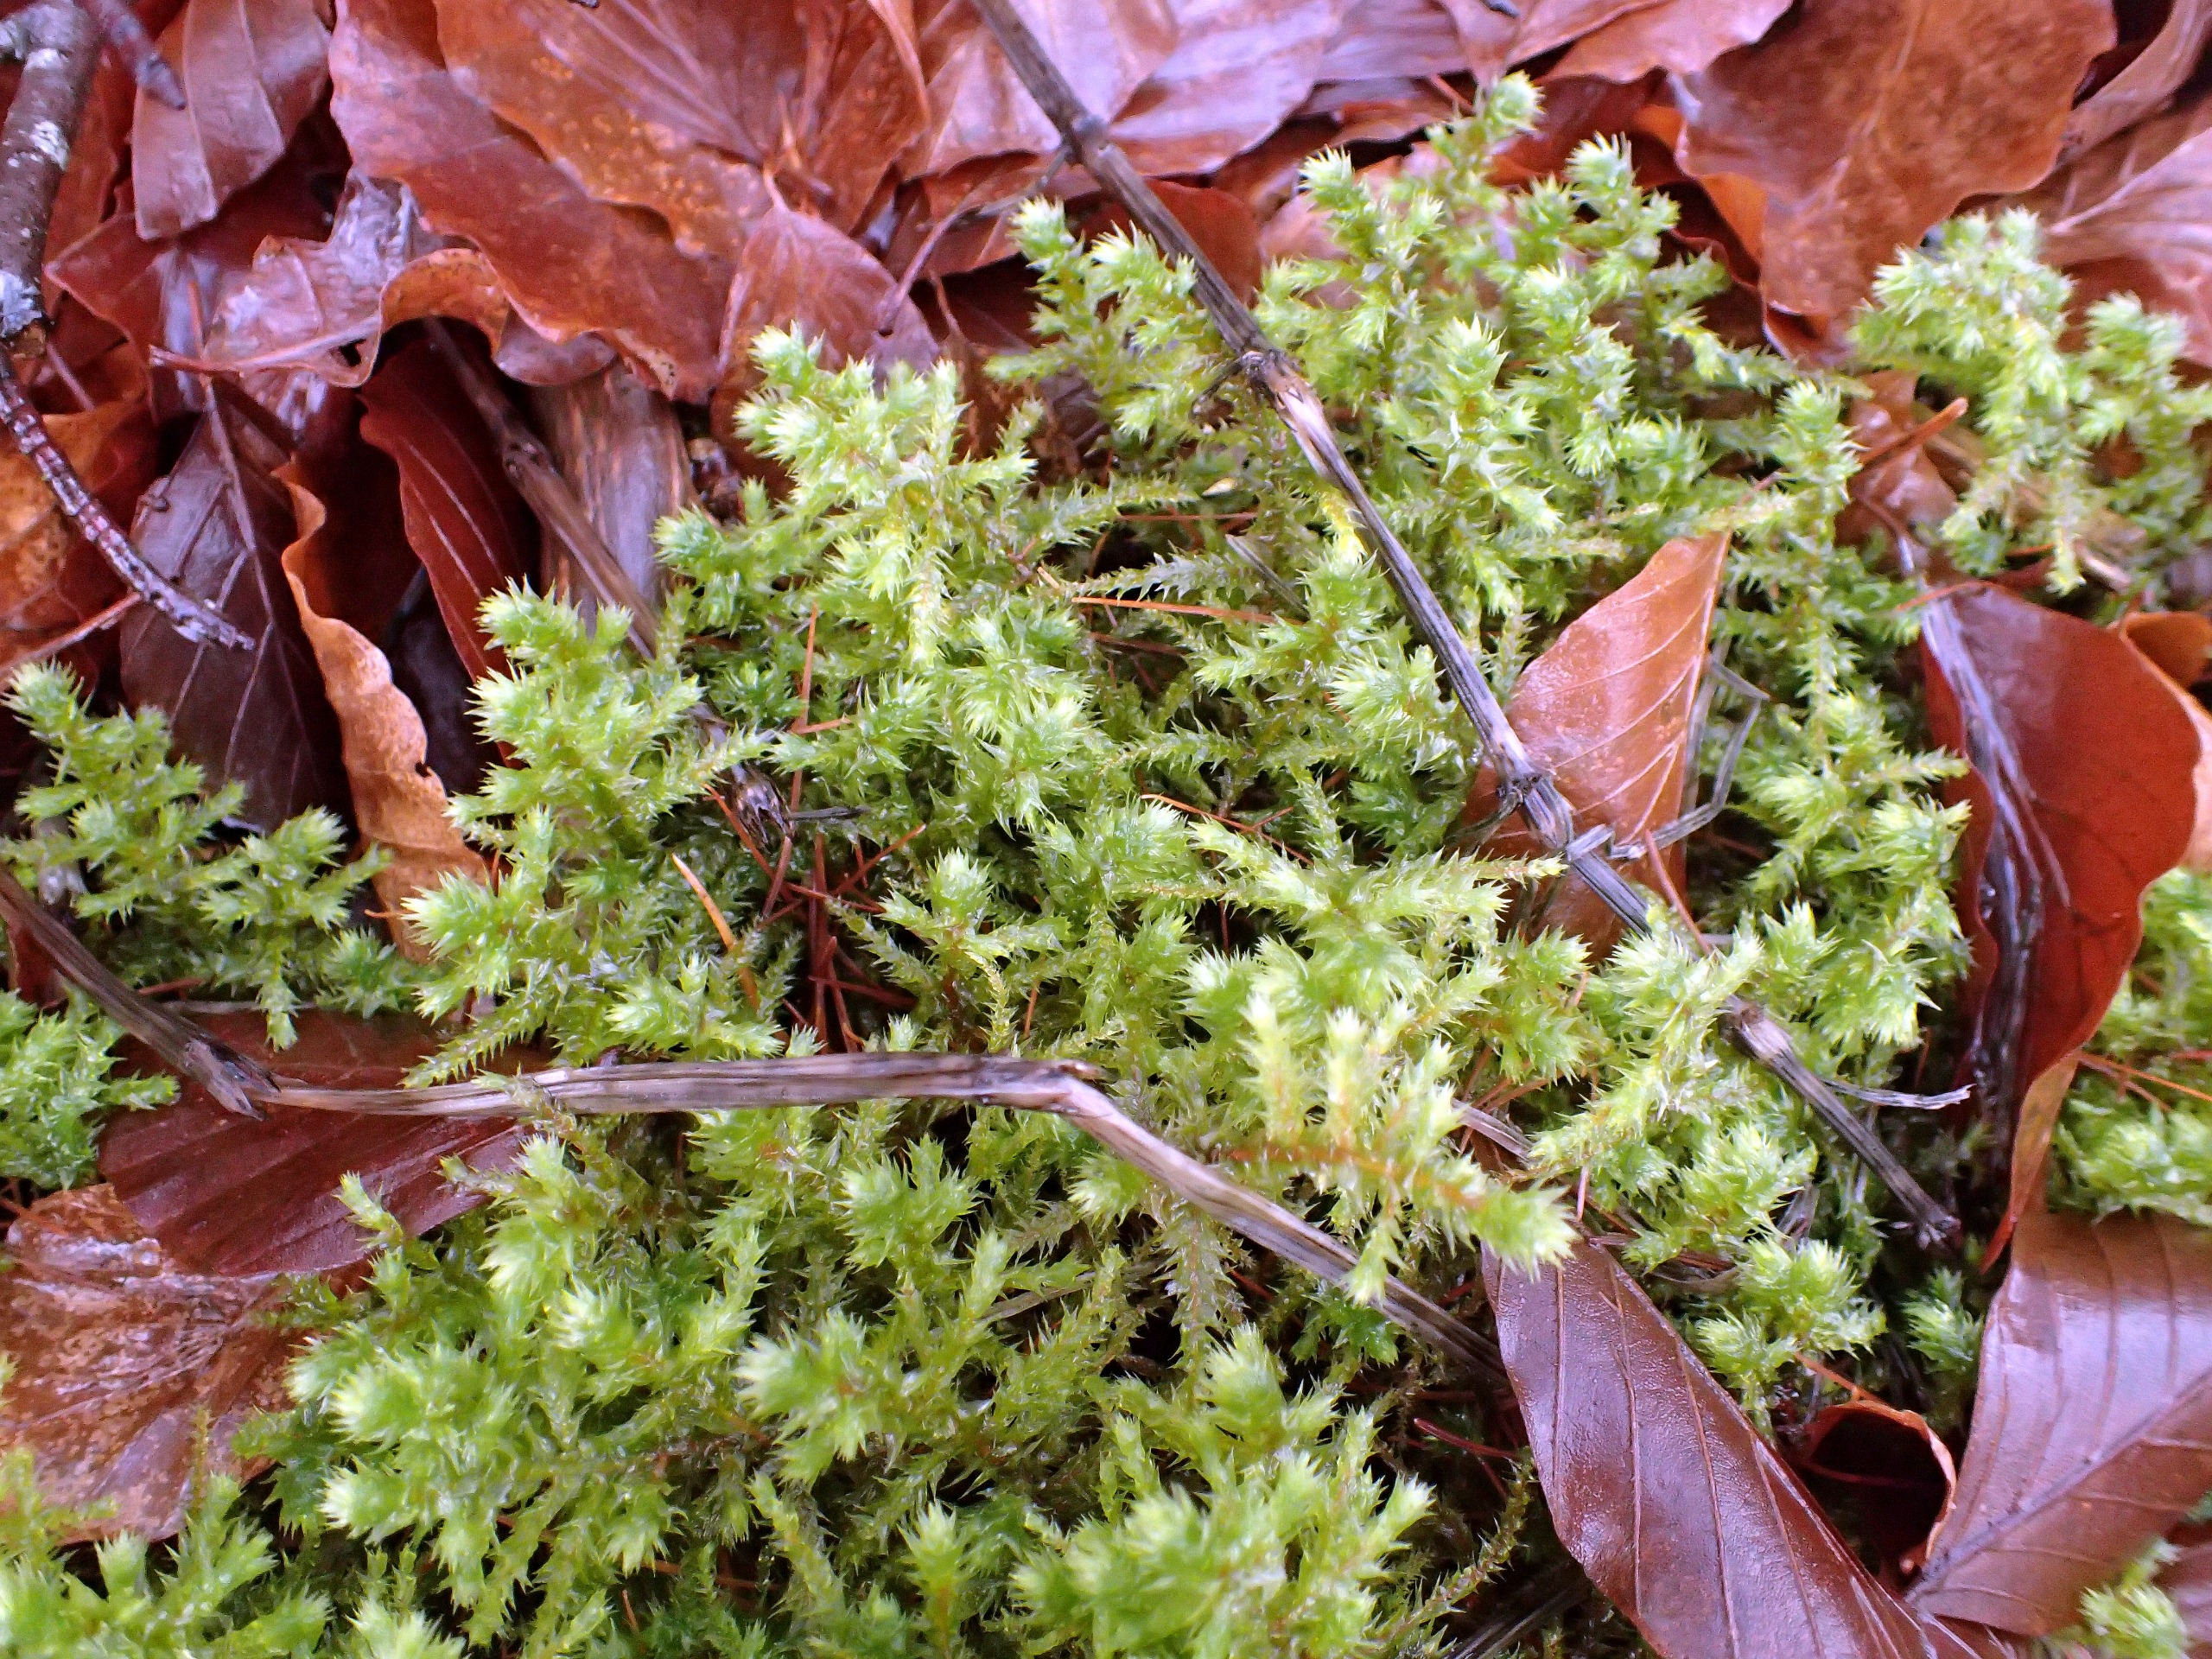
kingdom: Plantae
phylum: Bryophyta
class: Bryopsida
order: Hypnales
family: Hylocomiaceae
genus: Hylocomiadelphus
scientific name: Hylocomiadelphus triquetrus
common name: Stor kransemos
